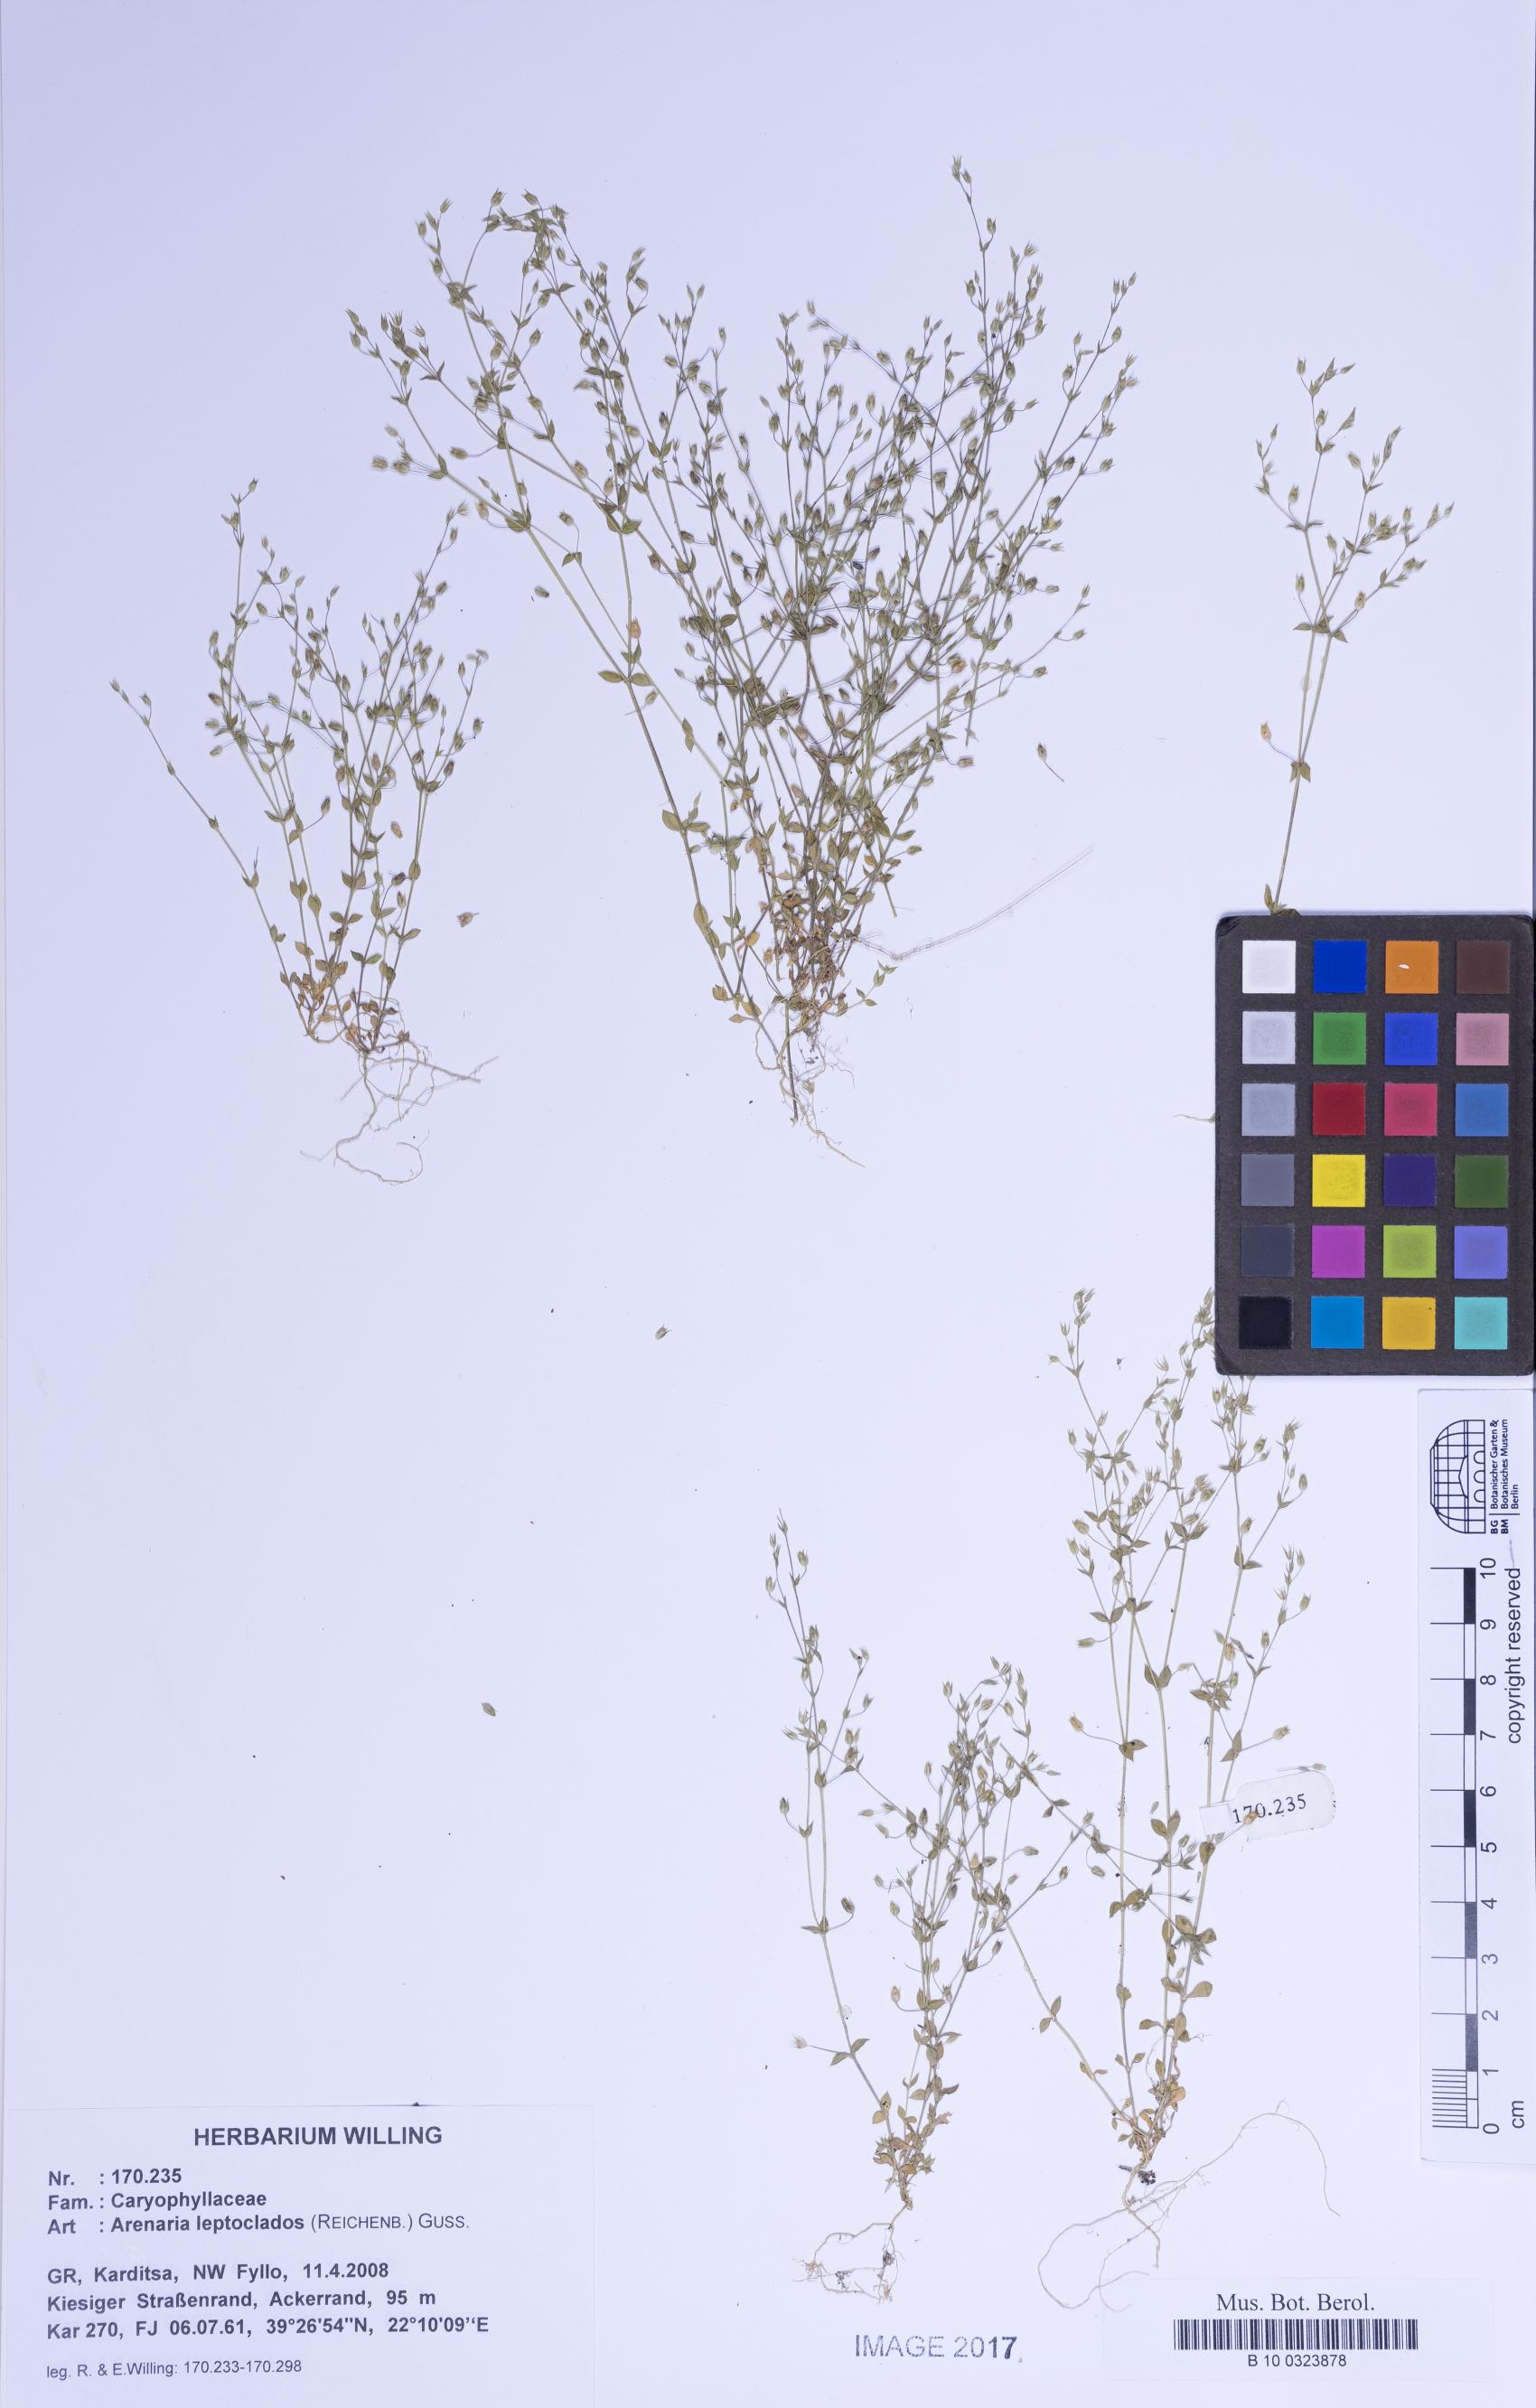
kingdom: Plantae
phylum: Tracheophyta
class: Magnoliopsida
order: Caryophyllales
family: Caryophyllaceae
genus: Arenaria
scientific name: Arenaria leptoclados
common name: Thyme-leaved sandwort
